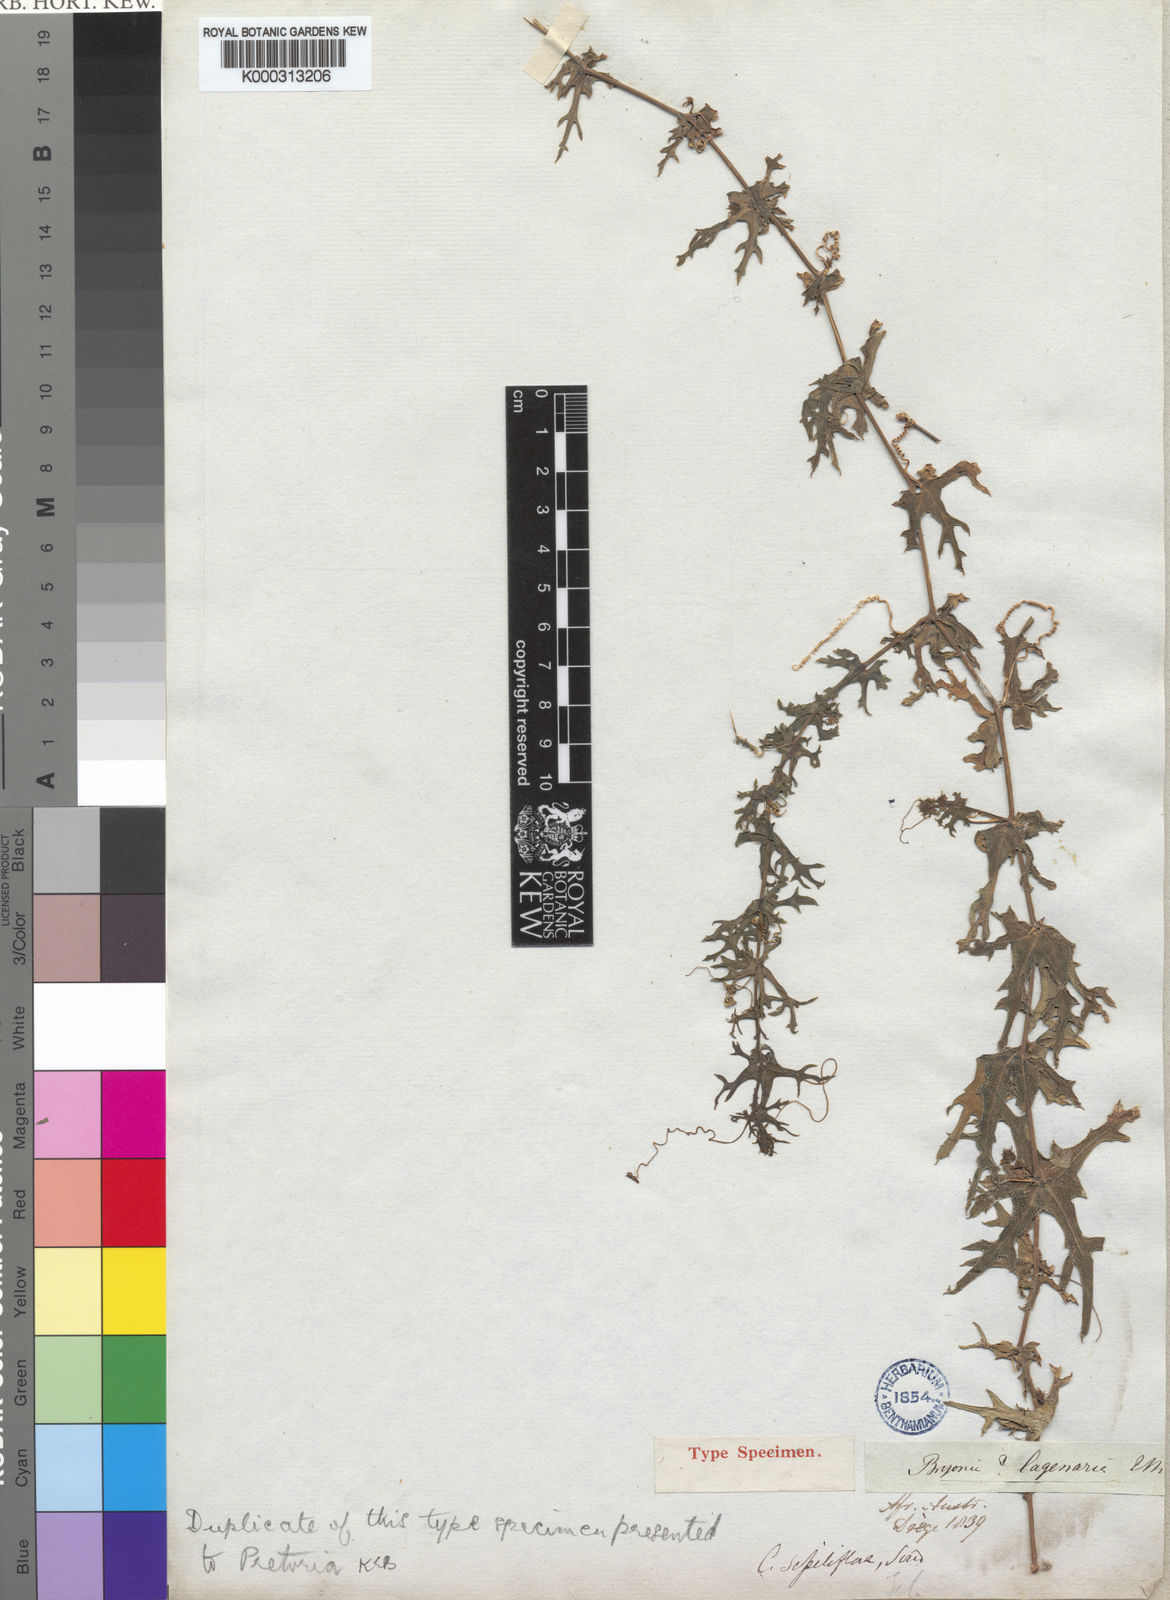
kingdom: Plantae
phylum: Tracheophyta
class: Magnoliopsida
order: Cucurbitales
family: Cucurbitaceae
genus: Coccinia
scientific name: Coccinia sessilifolia
